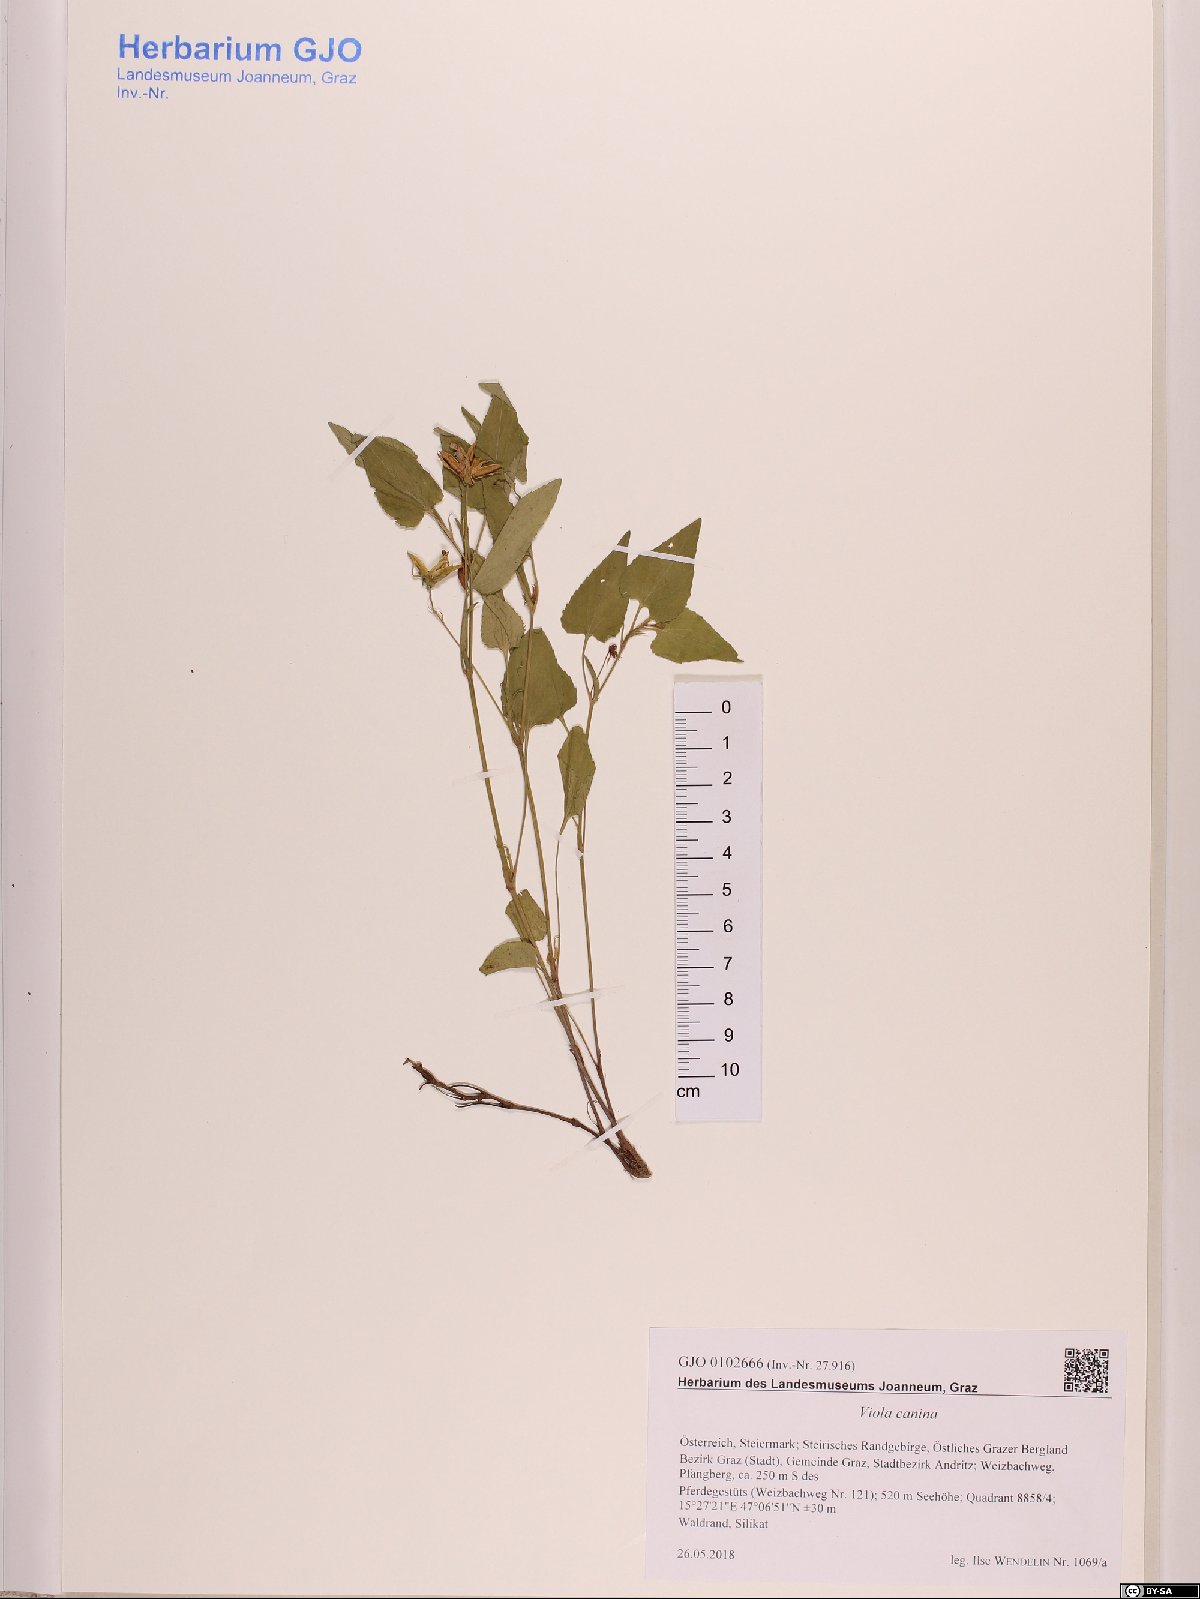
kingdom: Plantae
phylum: Tracheophyta
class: Magnoliopsida
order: Malpighiales
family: Violaceae
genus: Viola
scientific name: Viola canina
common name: Heath dog-violet
